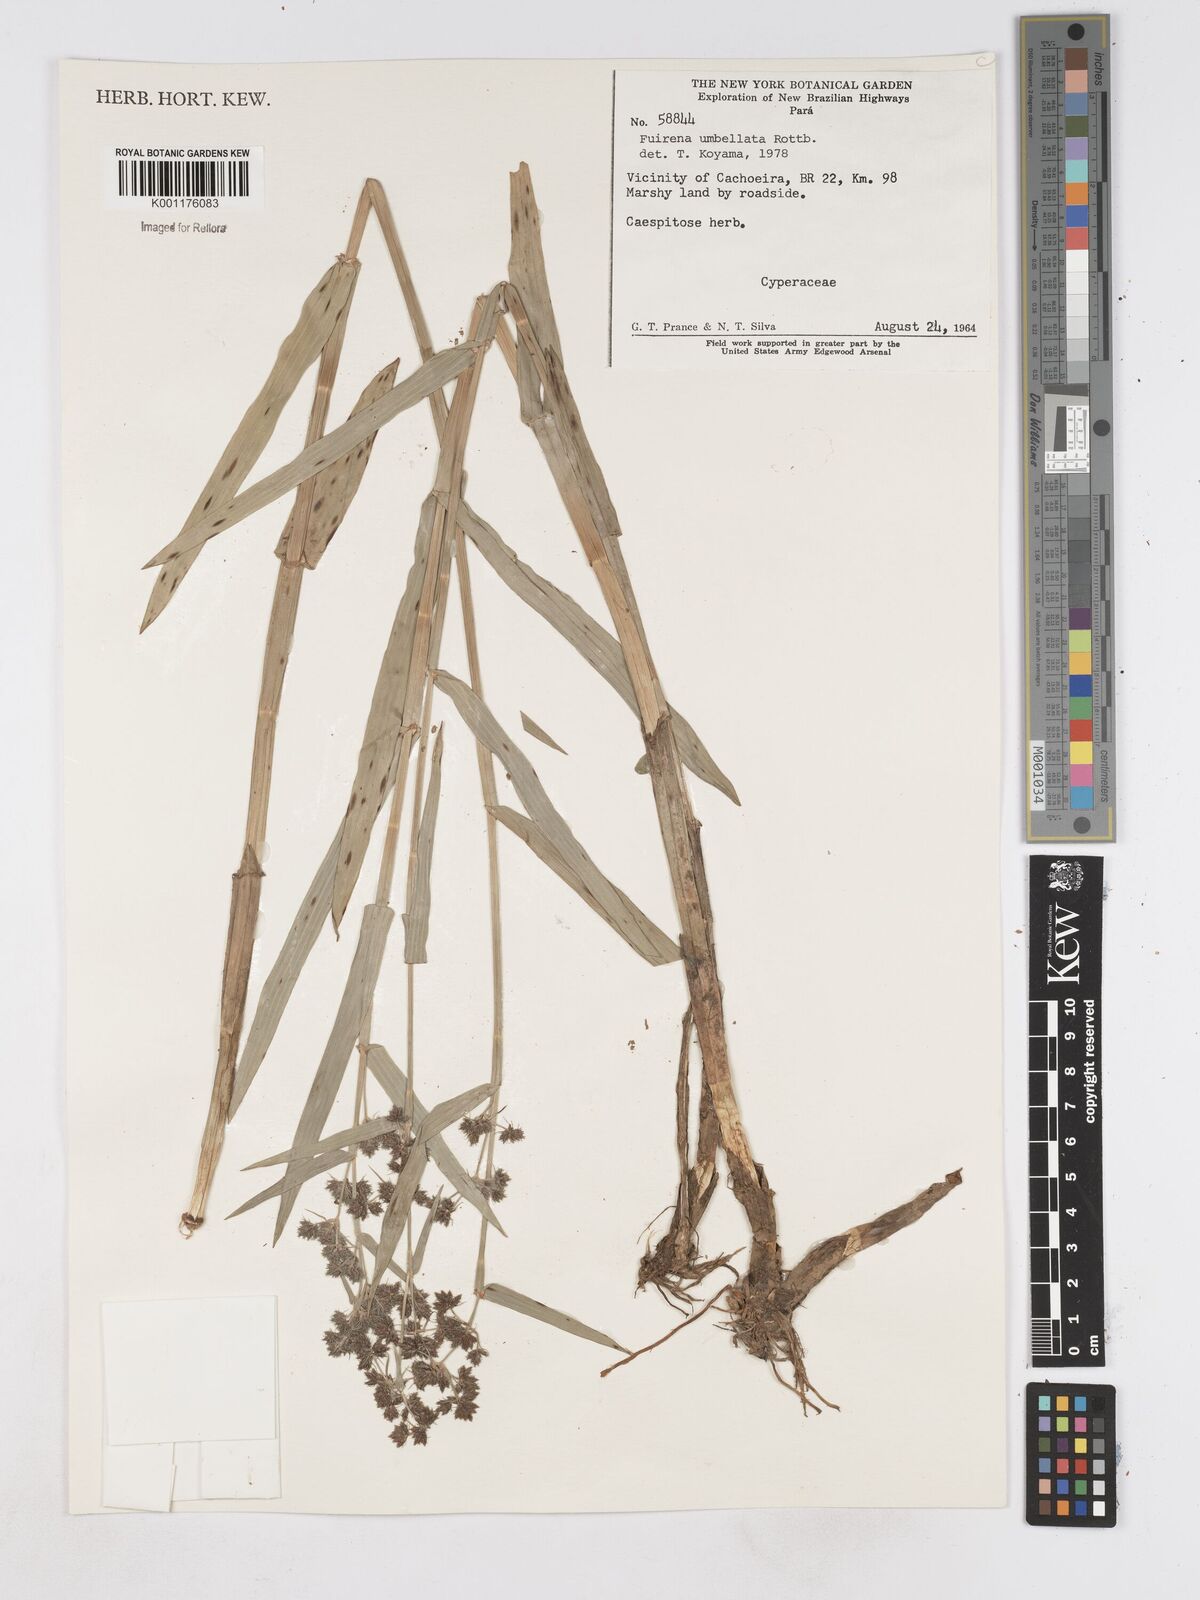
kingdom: Plantae
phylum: Tracheophyta
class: Liliopsida
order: Poales
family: Cyperaceae
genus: Fuirena
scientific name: Fuirena umbellata
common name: Yefen
